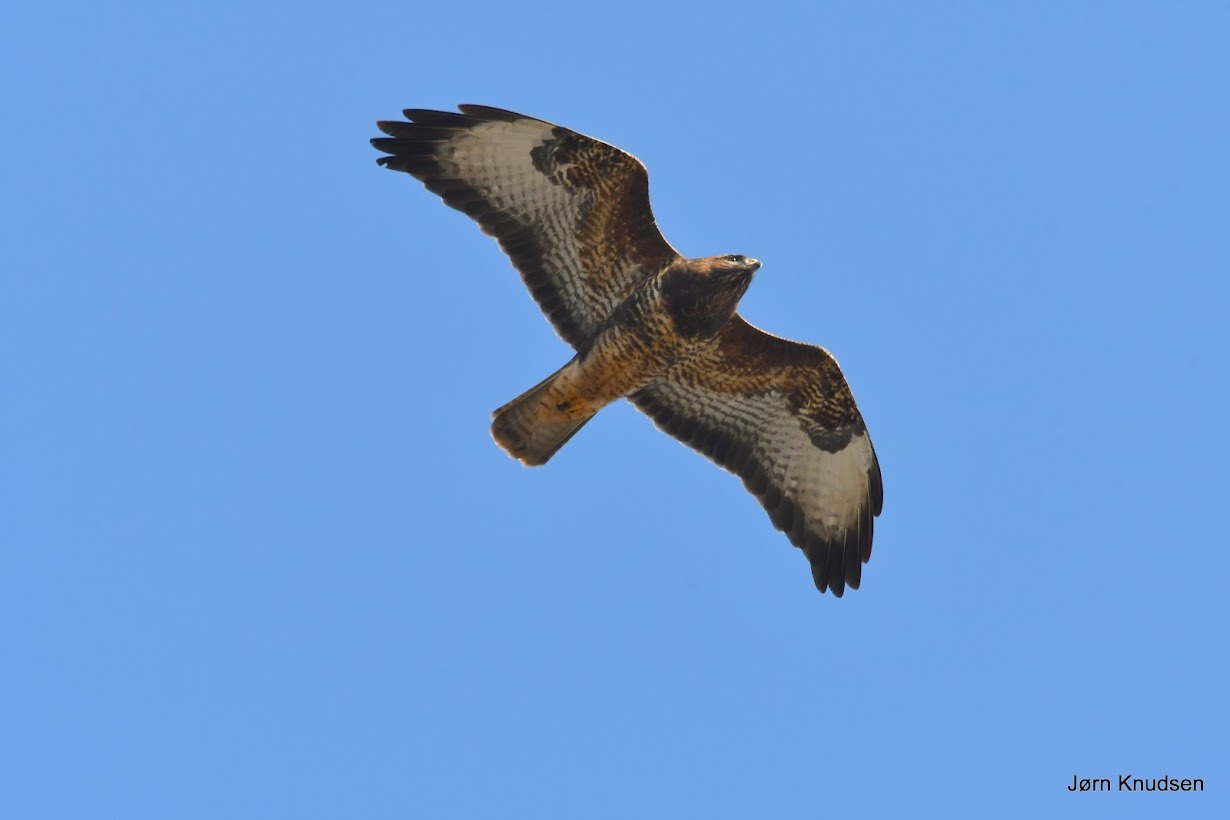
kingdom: Animalia
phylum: Chordata
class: Aves
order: Accipitriformes
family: Accipitridae
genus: Buteo
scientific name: Buteo buteo
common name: Musvåge
